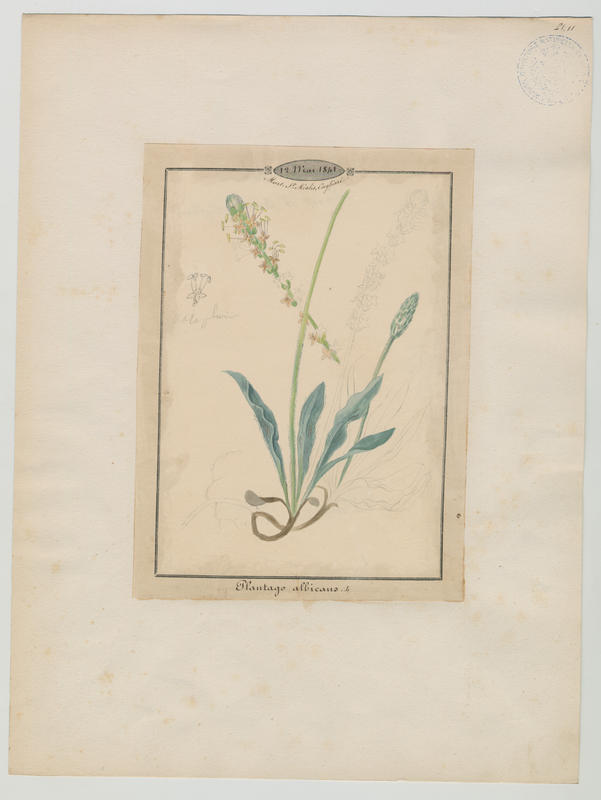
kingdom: Plantae
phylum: Tracheophyta
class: Magnoliopsida
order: Lamiales
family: Plantaginaceae
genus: Plantago
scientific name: Plantago albicans
